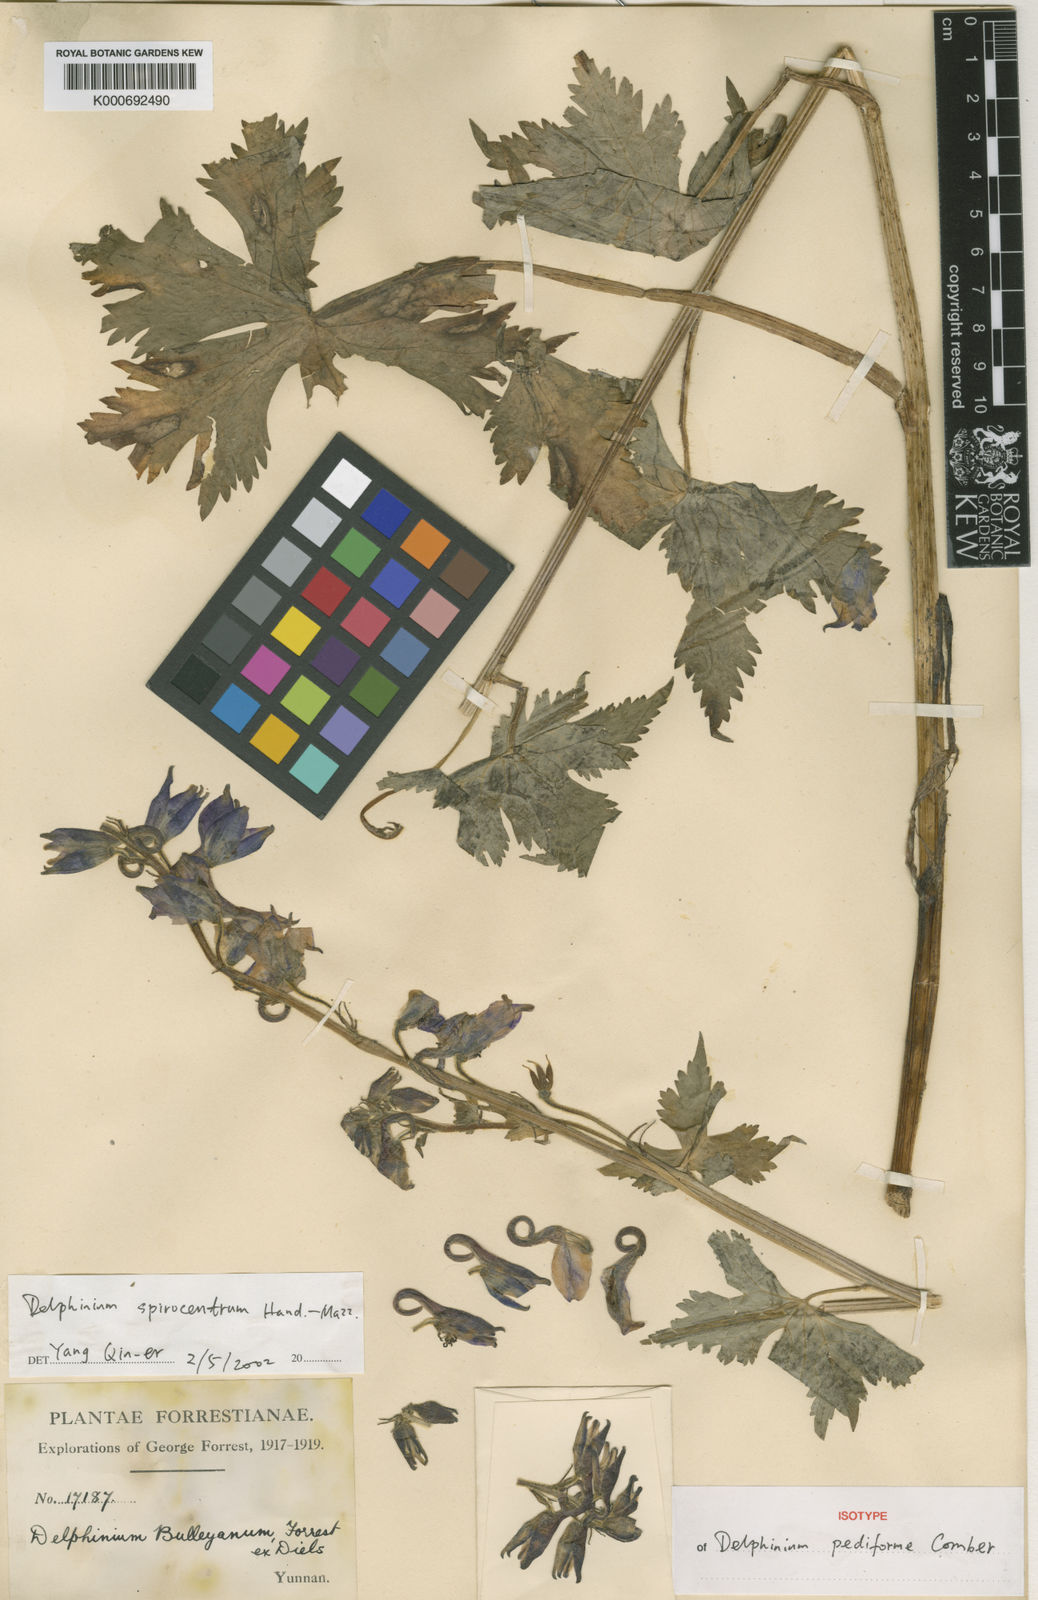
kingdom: Plantae
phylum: Tracheophyta
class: Magnoliopsida
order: Ranunculales
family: Ranunculaceae
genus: Delphinium
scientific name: Delphinium spirocentrum
